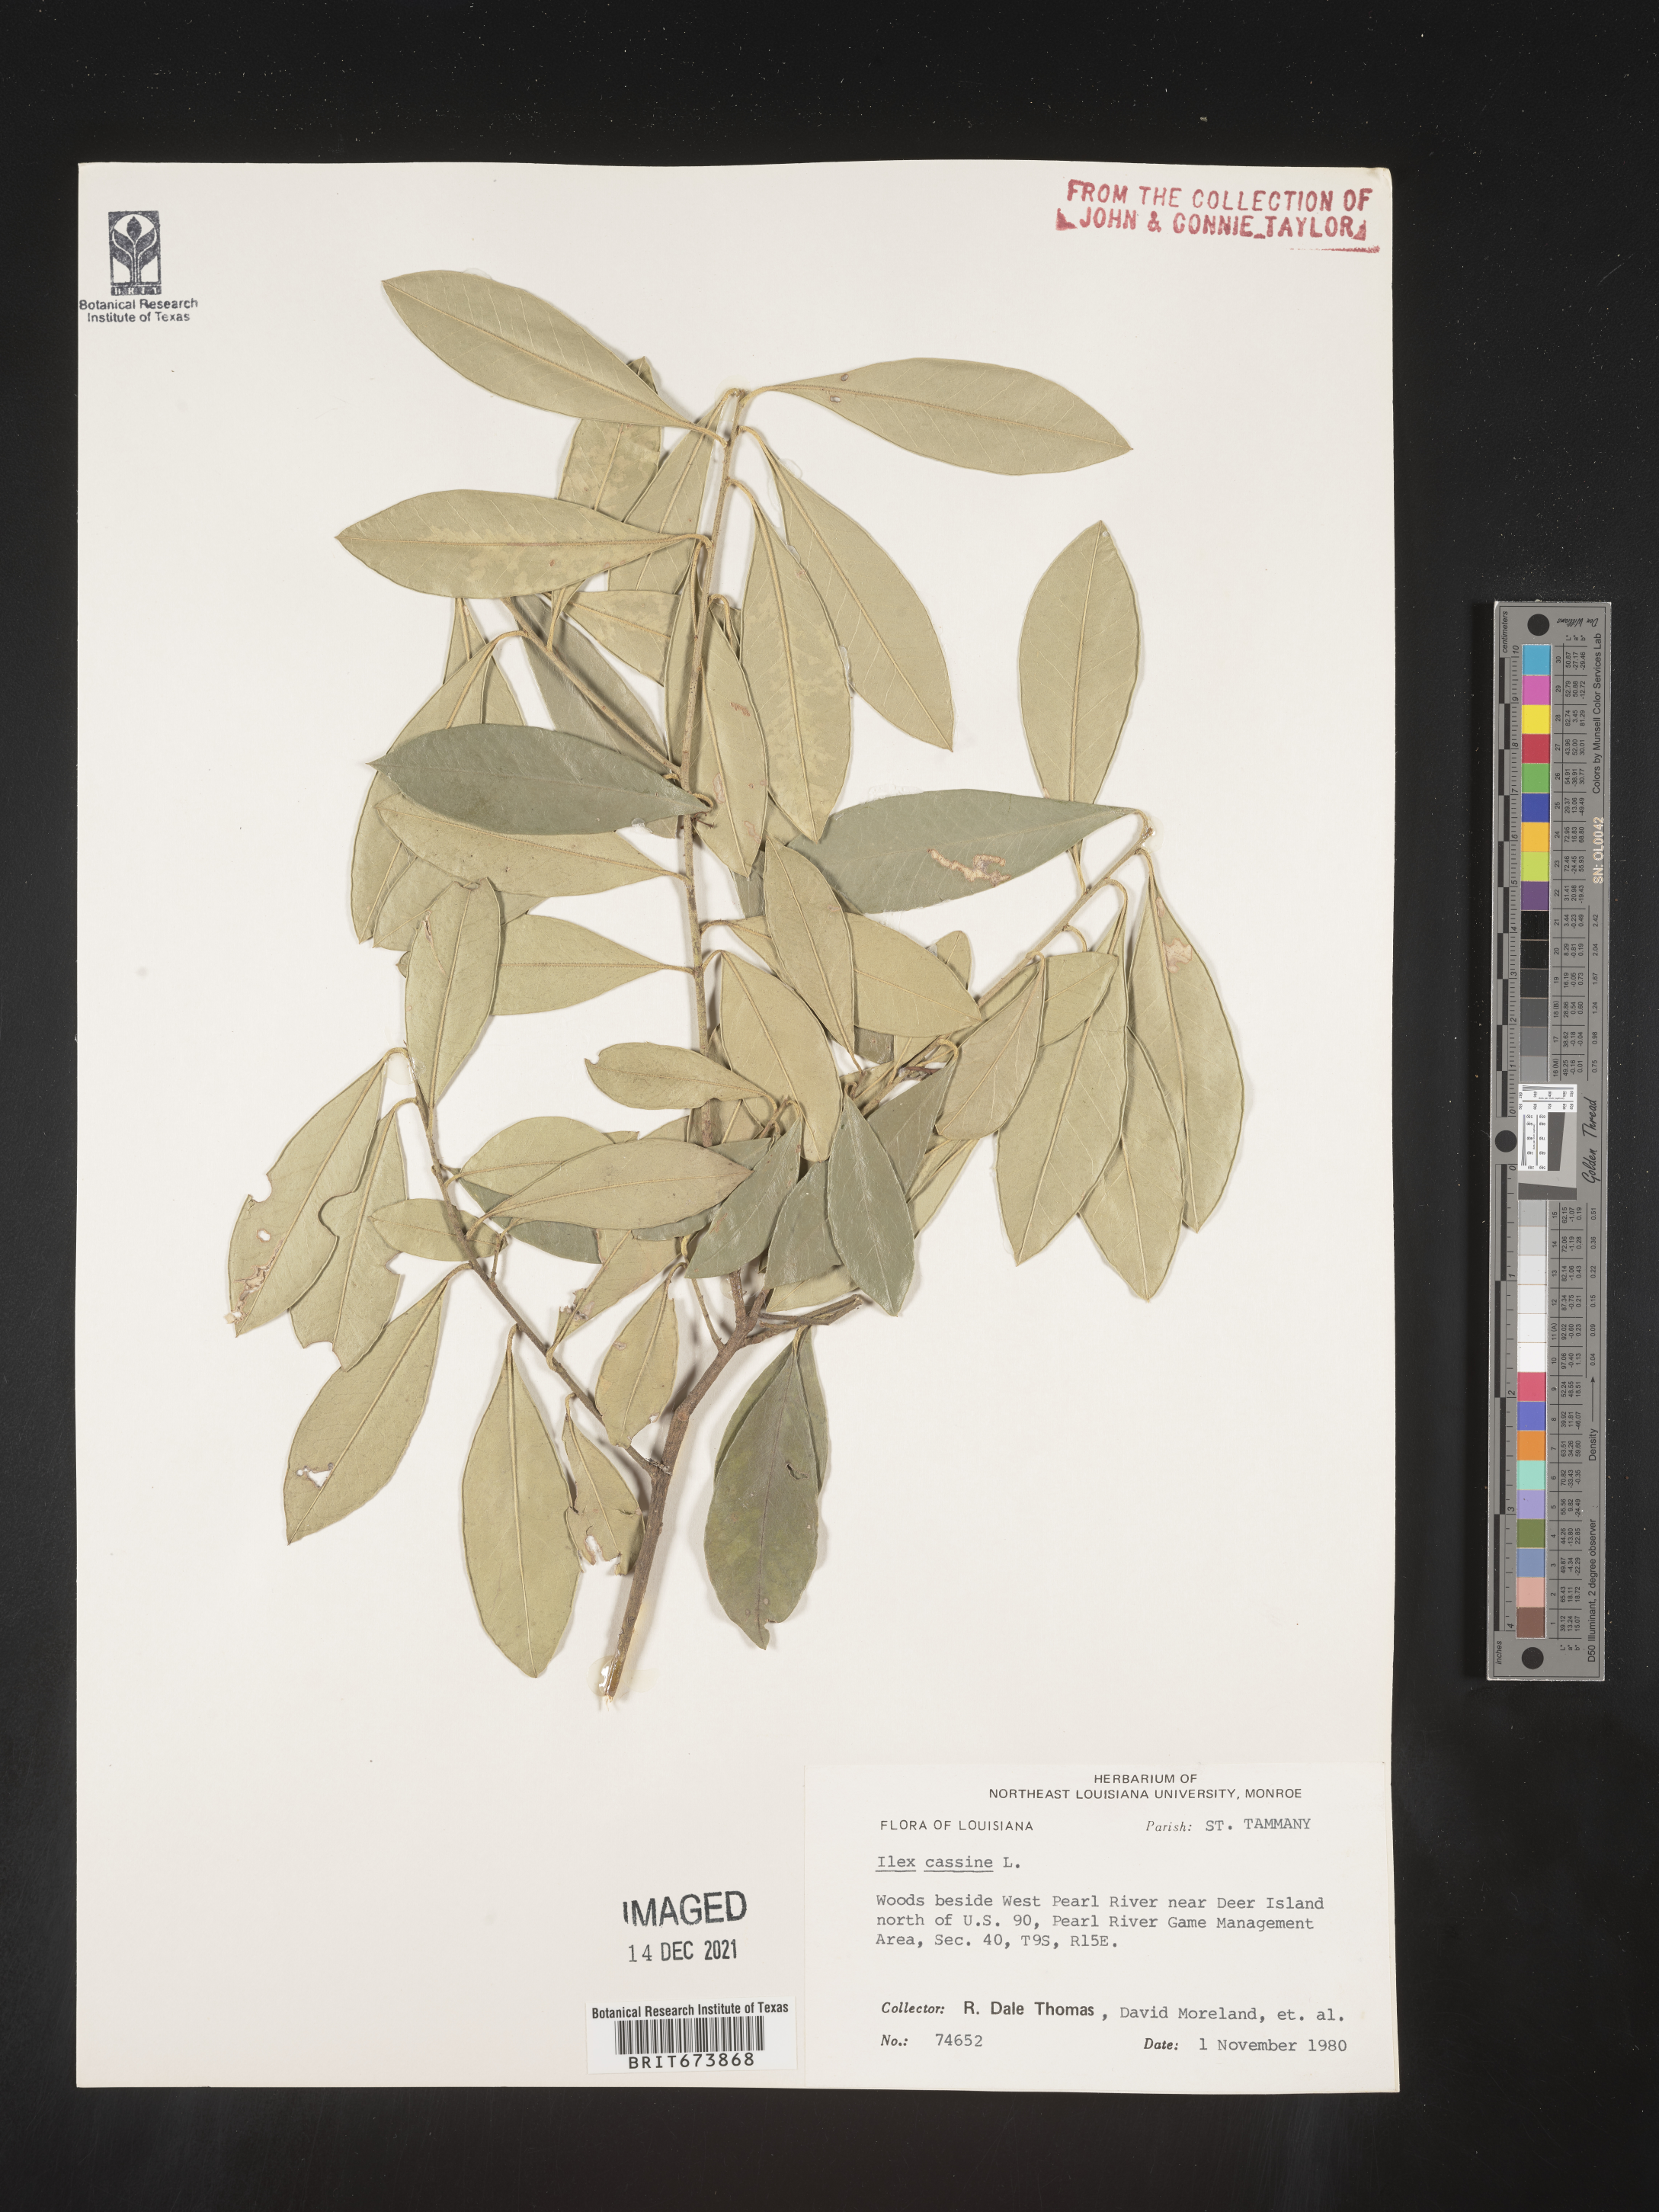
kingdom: Plantae
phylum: Tracheophyta
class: Magnoliopsida
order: Aquifoliales
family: Aquifoliaceae
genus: Ilex
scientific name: Ilex cassine
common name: Dahoon
